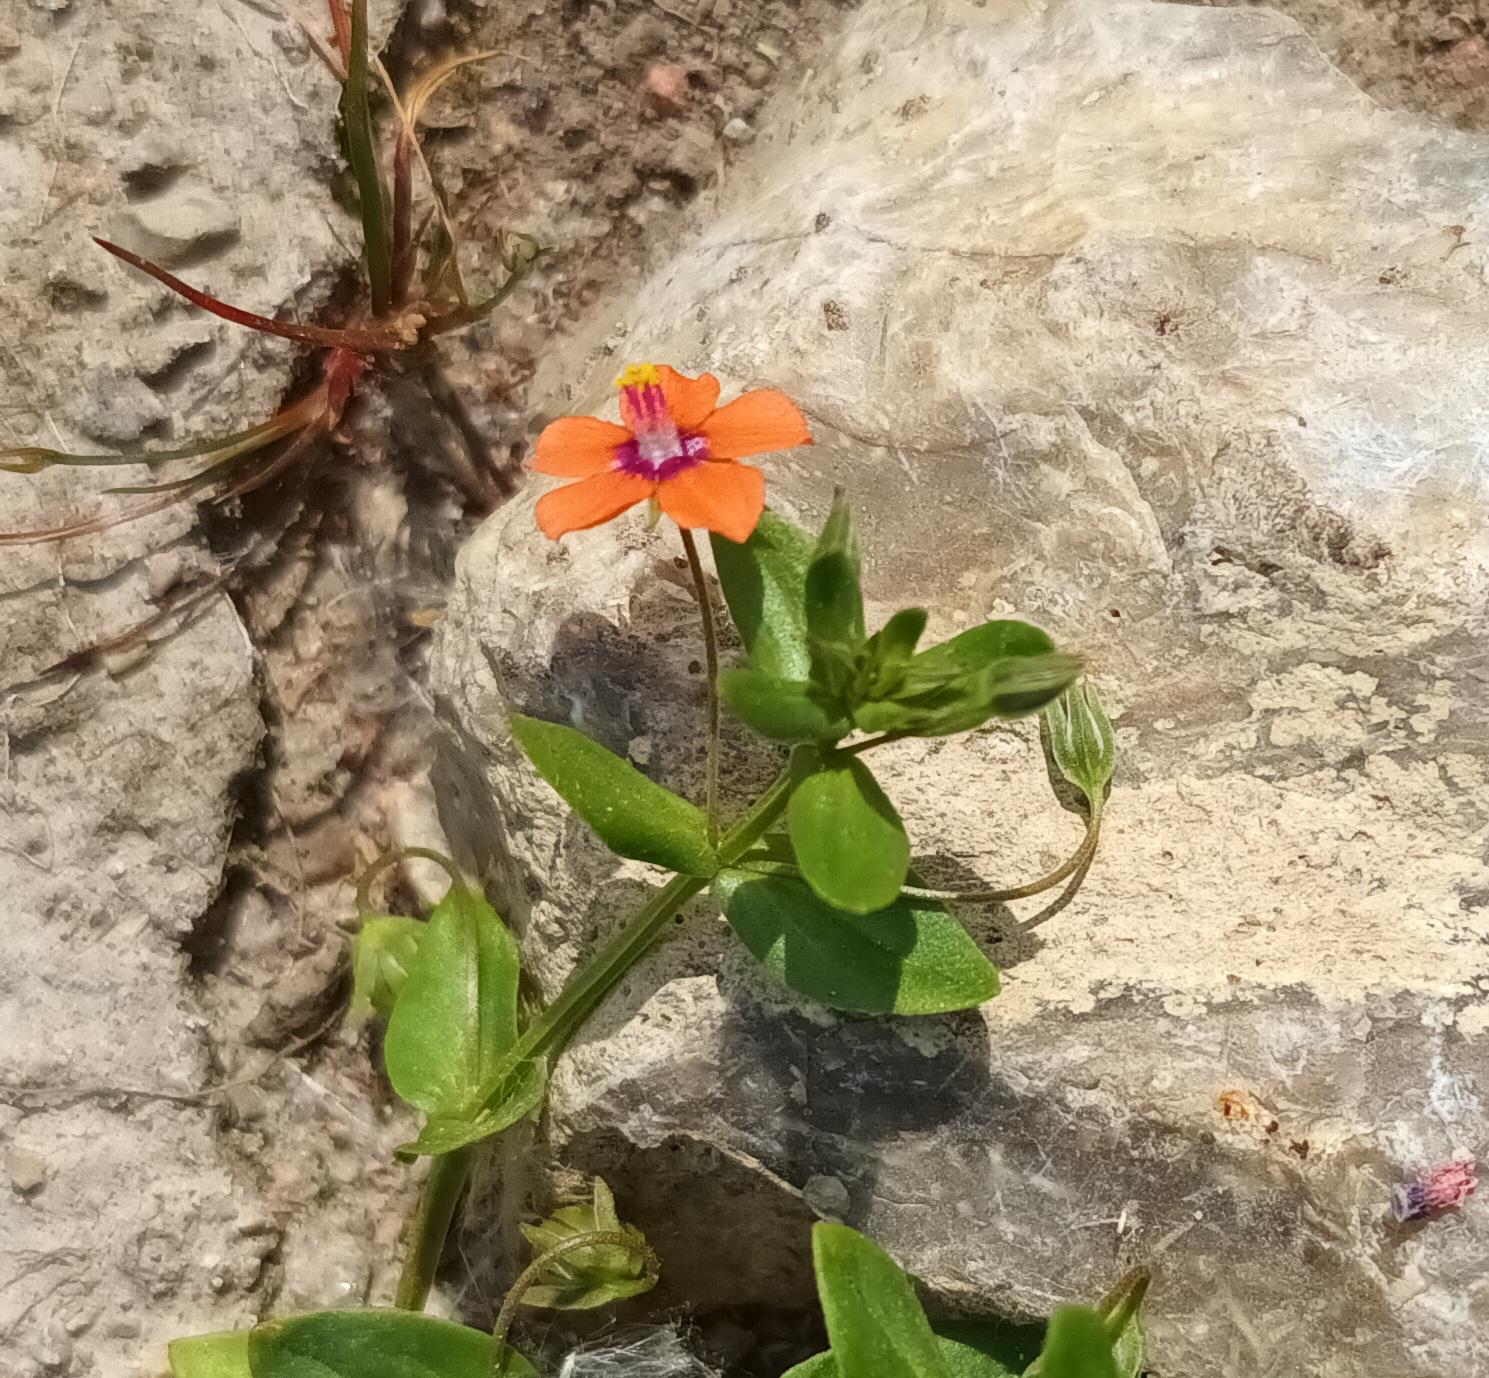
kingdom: Plantae
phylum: Tracheophyta
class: Magnoliopsida
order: Ericales
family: Primulaceae
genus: Lysimachia
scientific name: Lysimachia arvensis
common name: Rød arve
